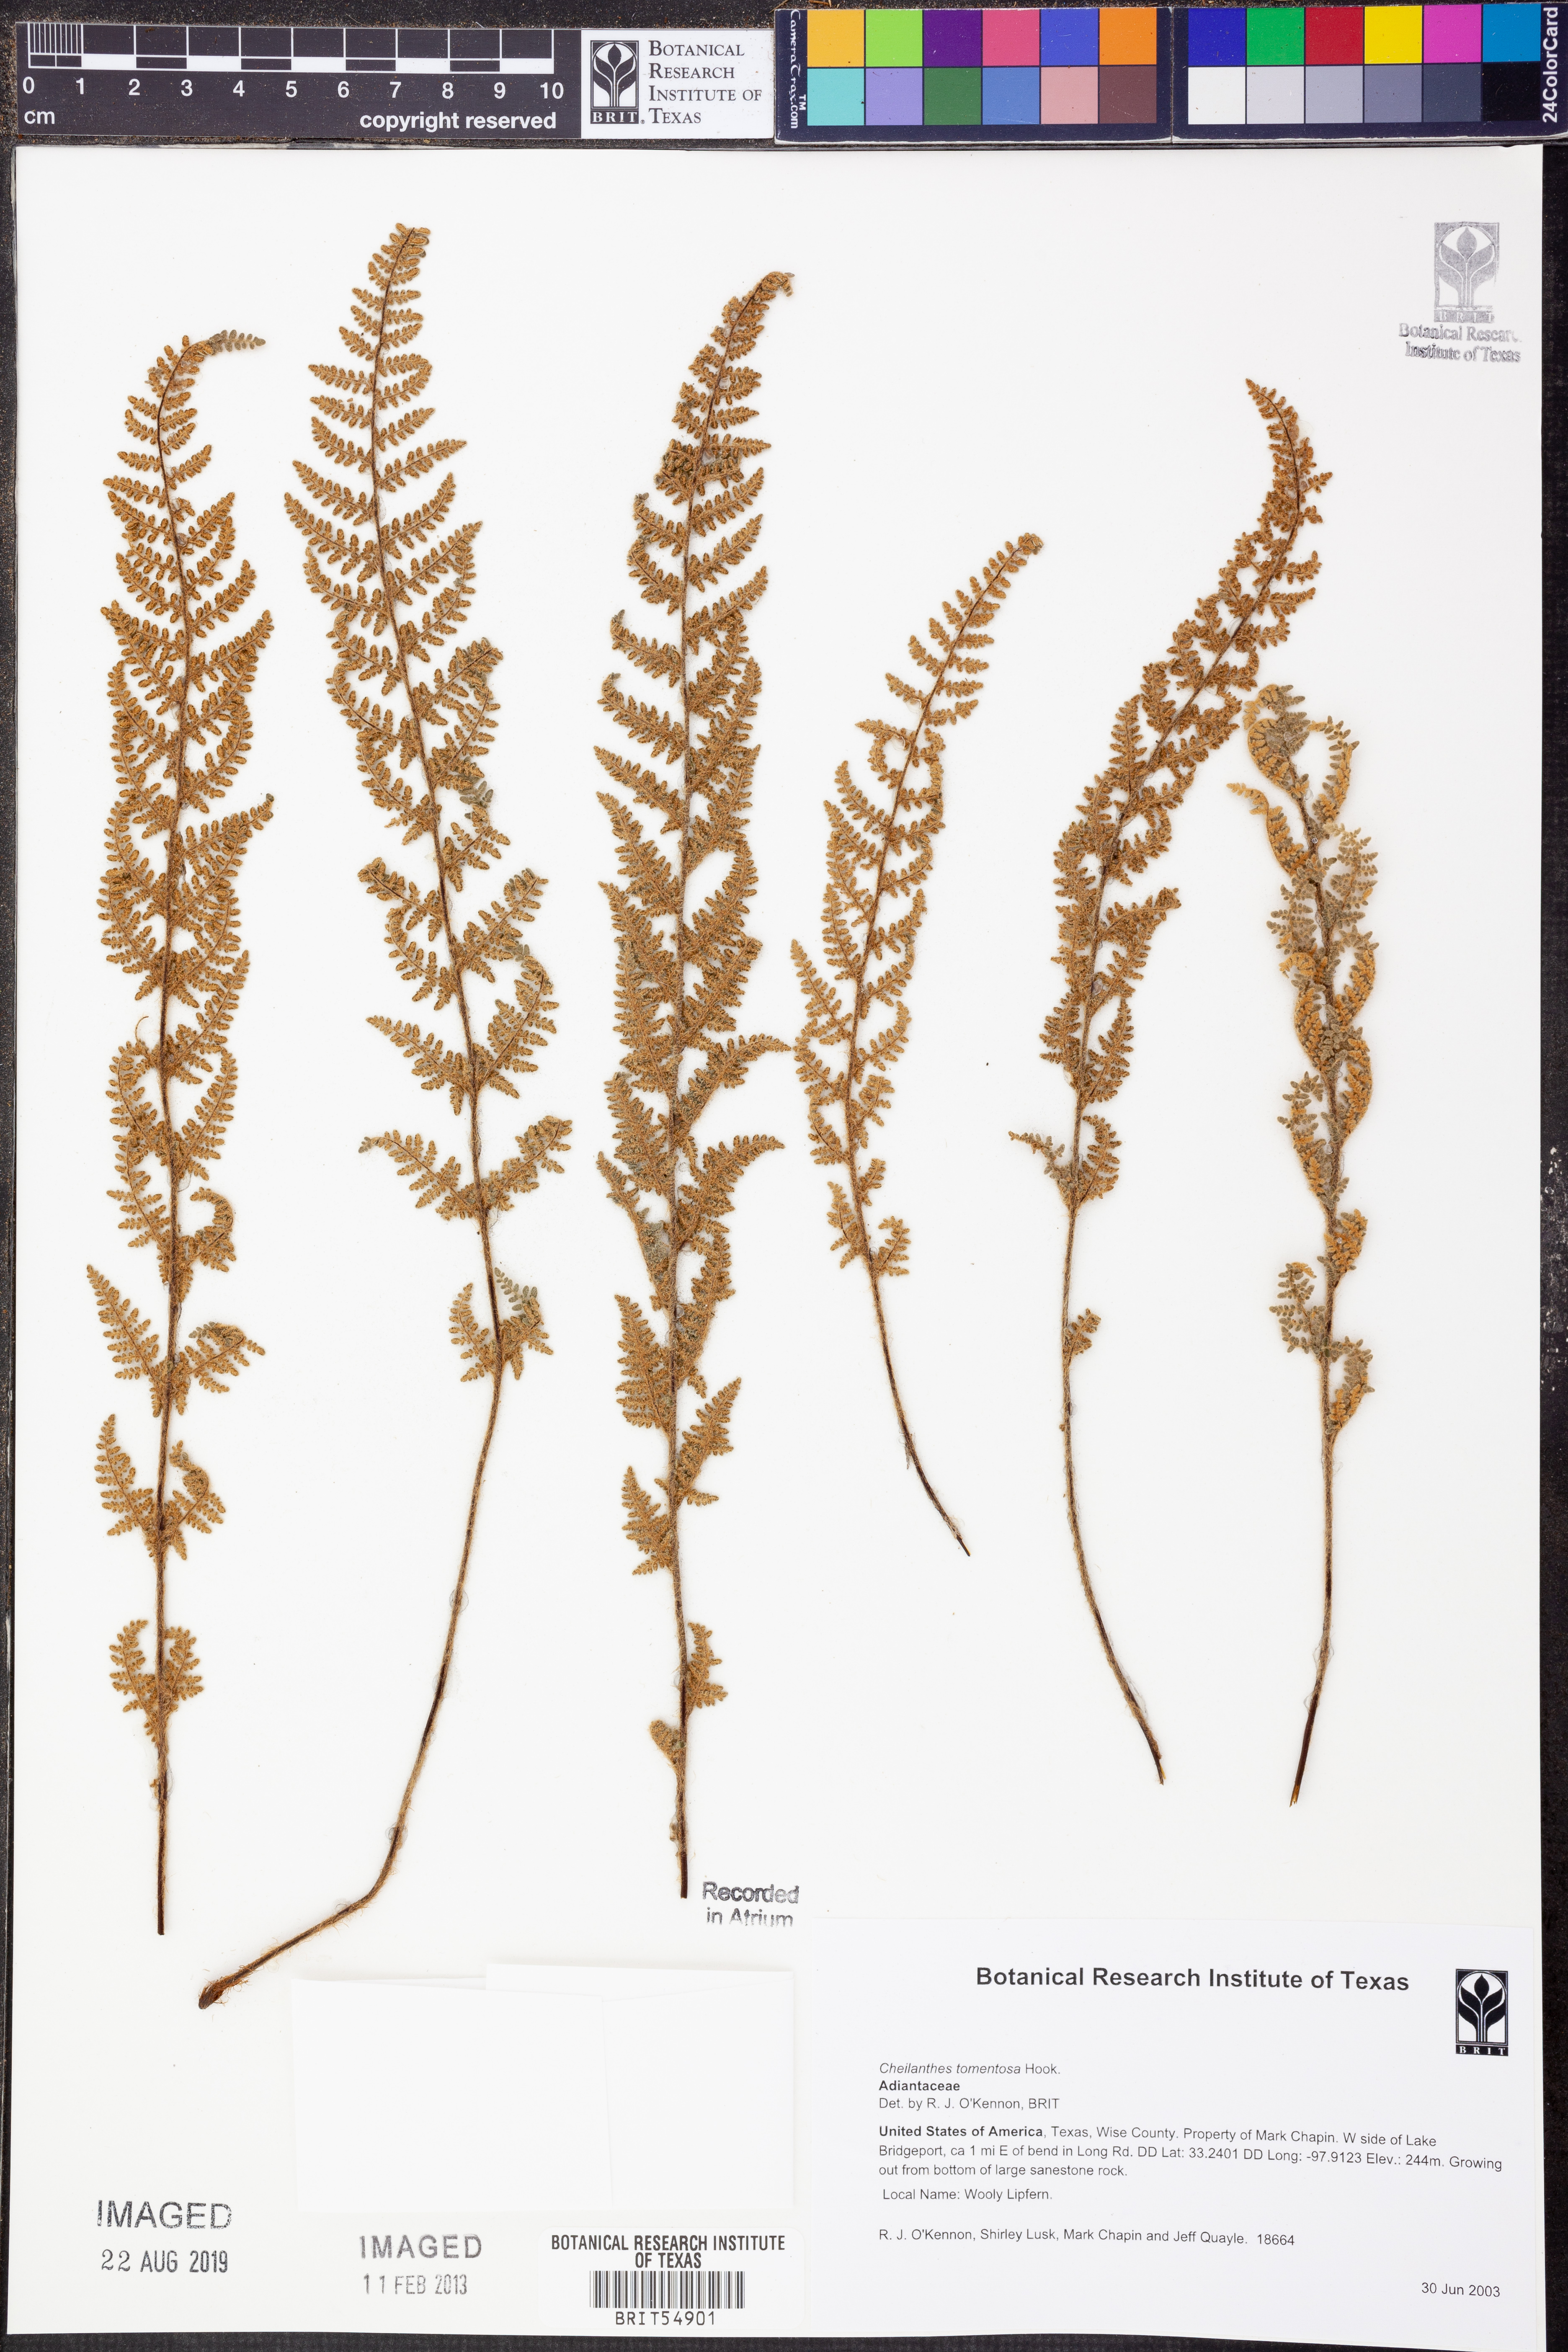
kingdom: Plantae
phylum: Tracheophyta
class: Polypodiopsida
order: Polypodiales
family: Pteridaceae
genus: Myriopteris
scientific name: Myriopteris tomentosa
